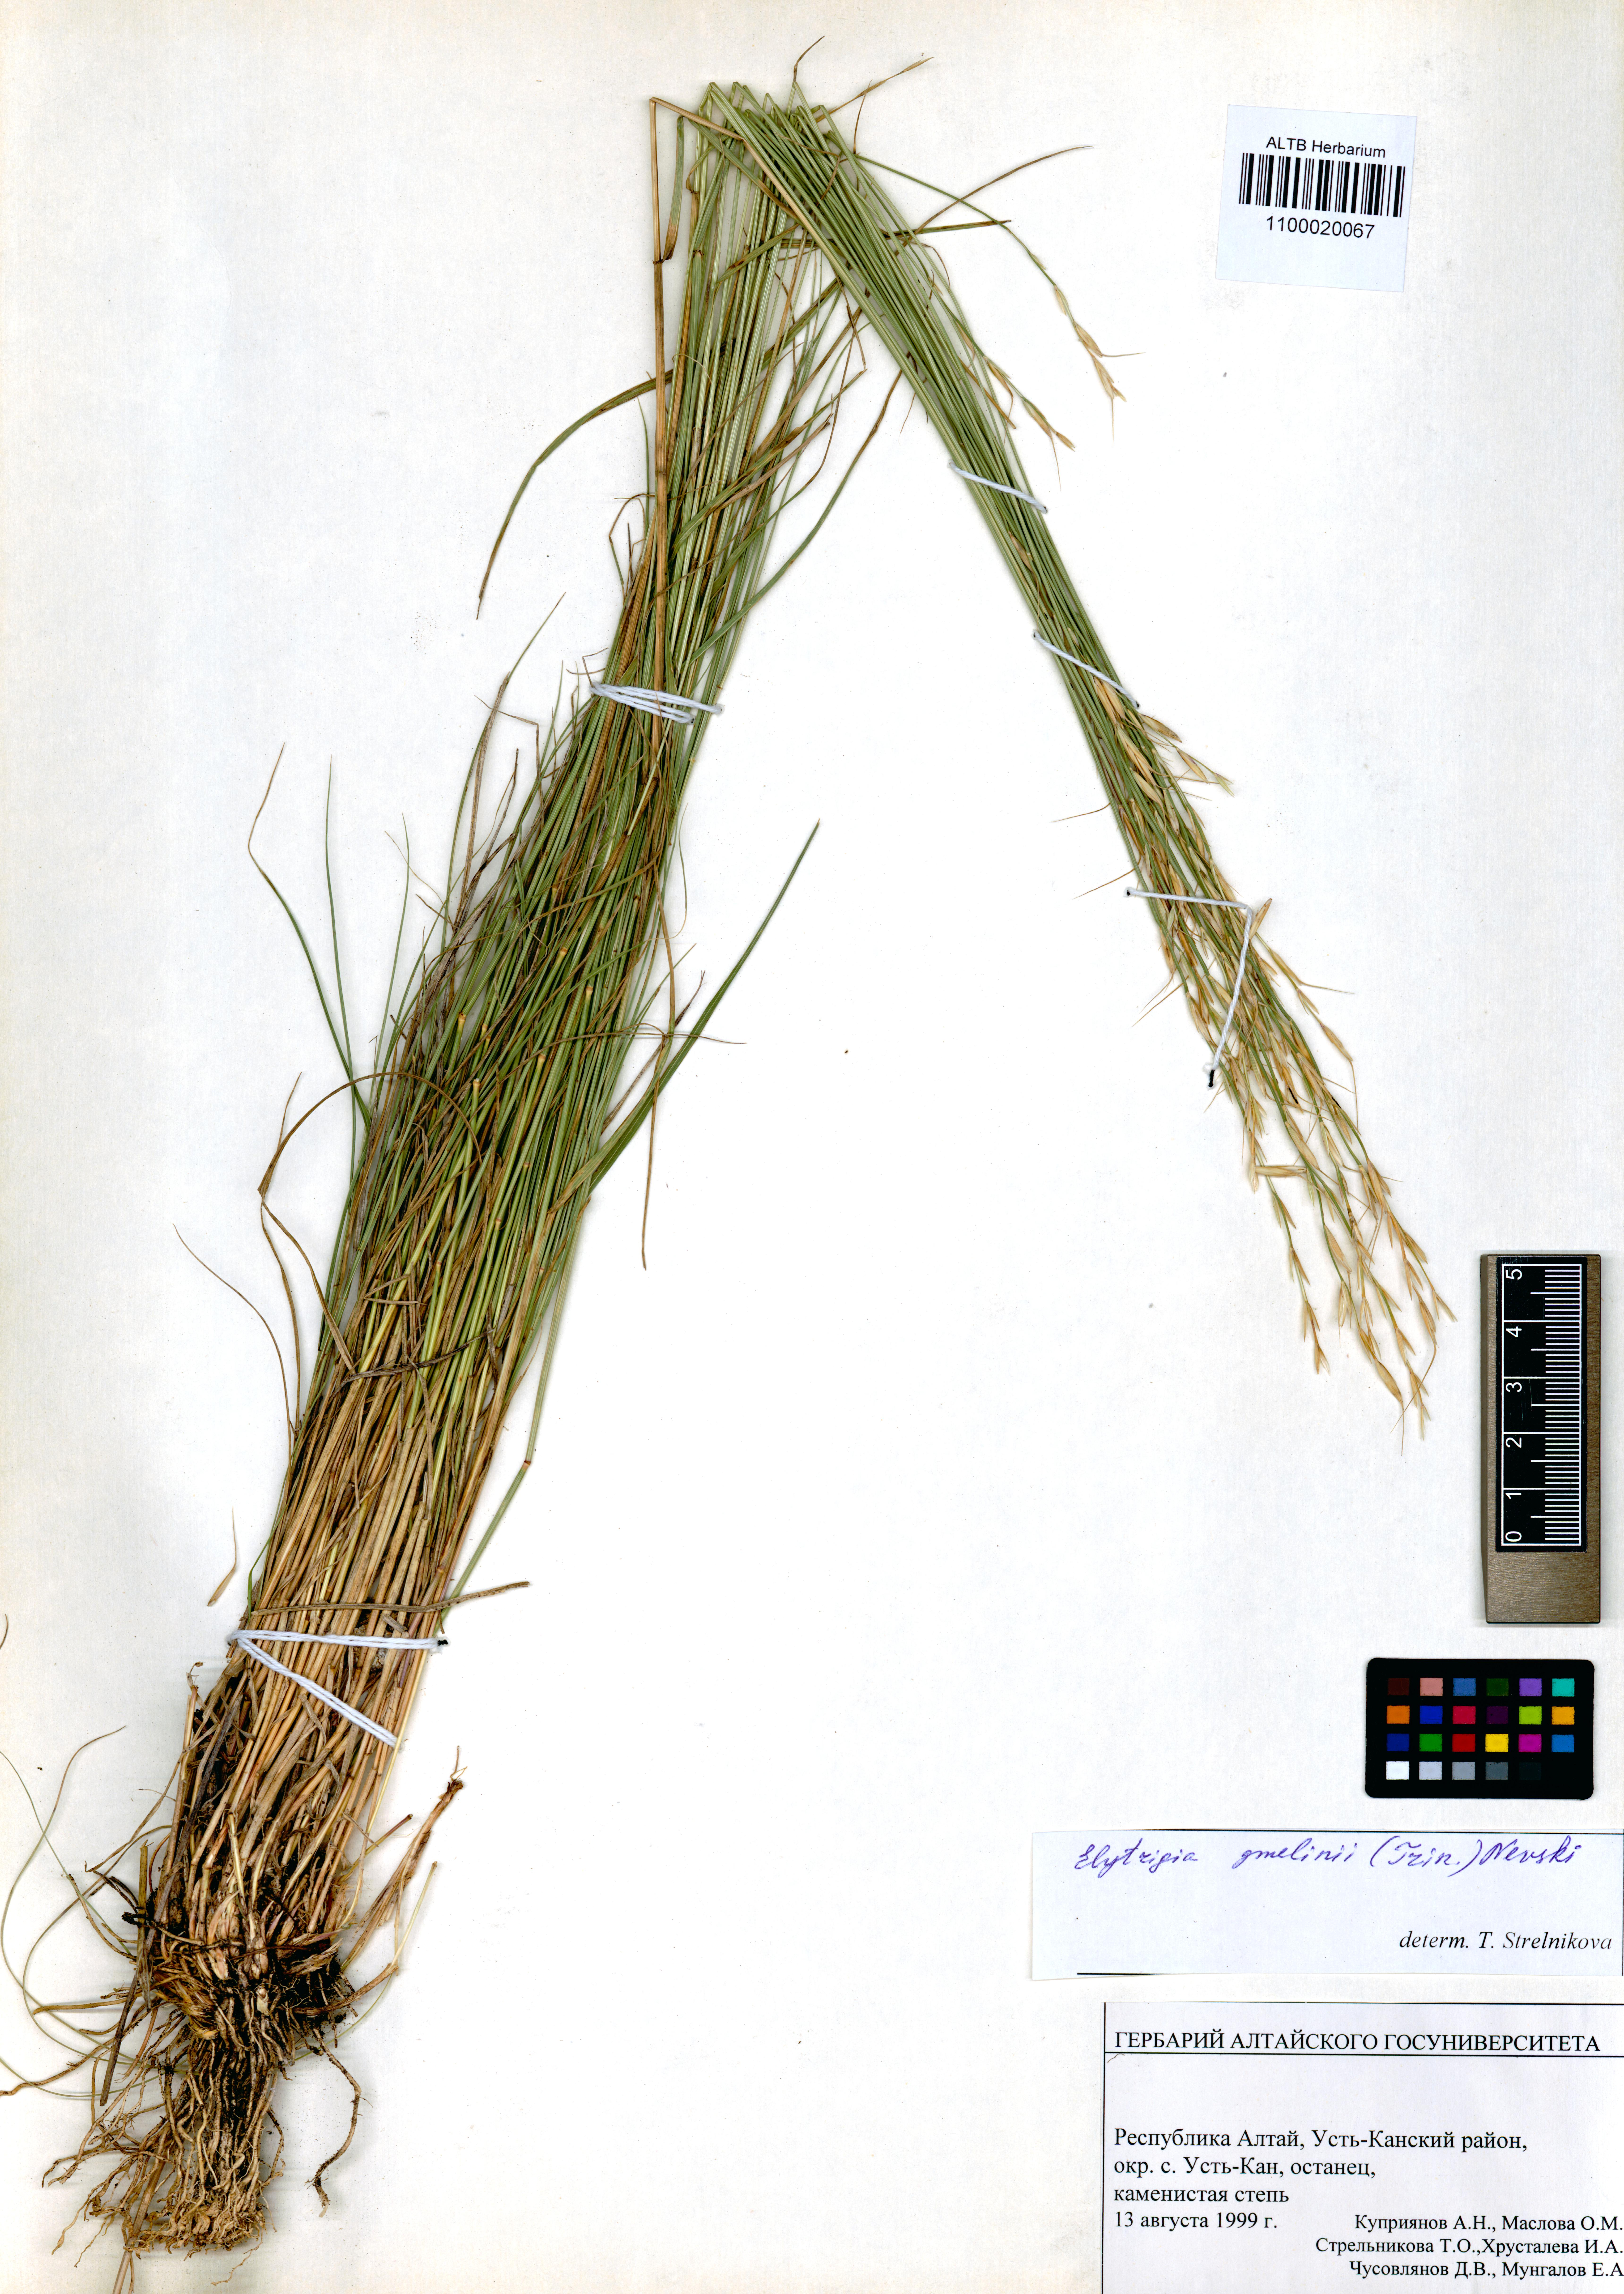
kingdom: Plantae
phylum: Tracheophyta
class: Liliopsida
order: Poales
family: Poaceae
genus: Pseudoroegneria
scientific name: Pseudoroegneria reflexiaristata
